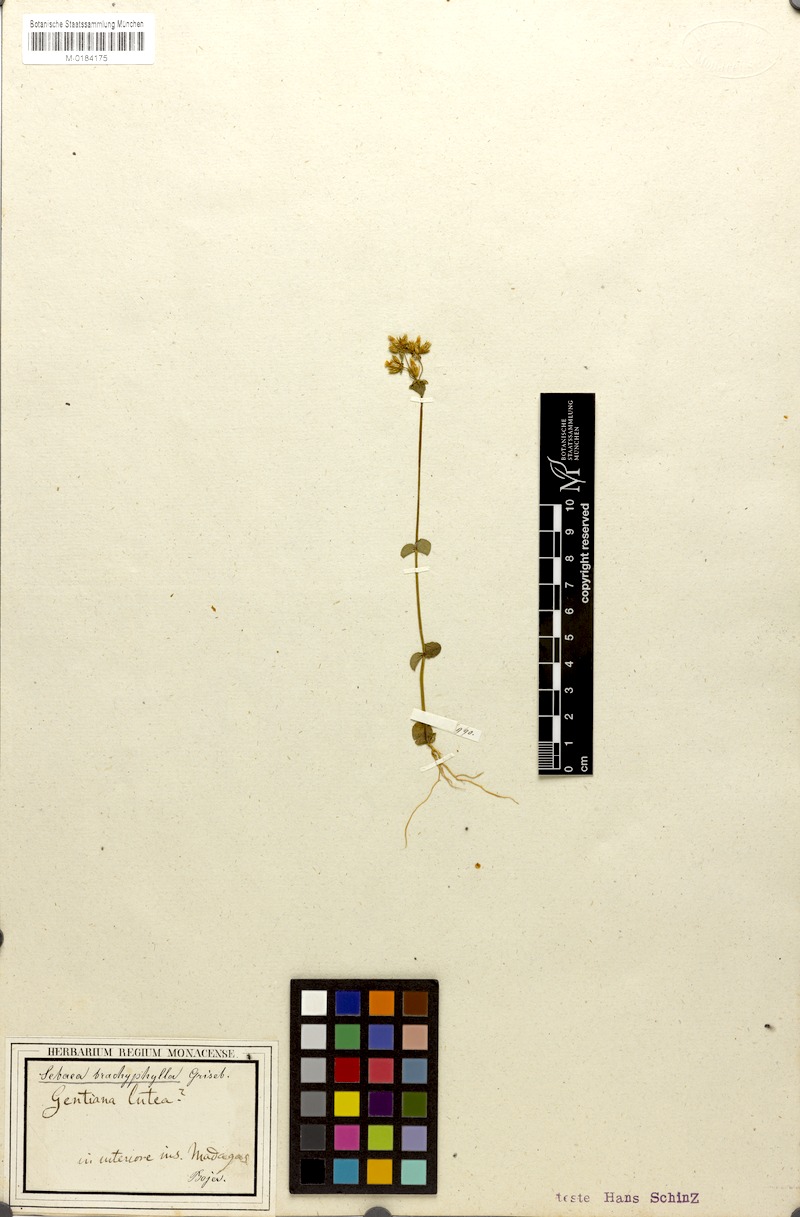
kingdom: Plantae
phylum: Tracheophyta
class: Magnoliopsida
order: Gentianales
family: Gentianaceae
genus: Sebaea
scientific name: Sebaea brachyphylla
